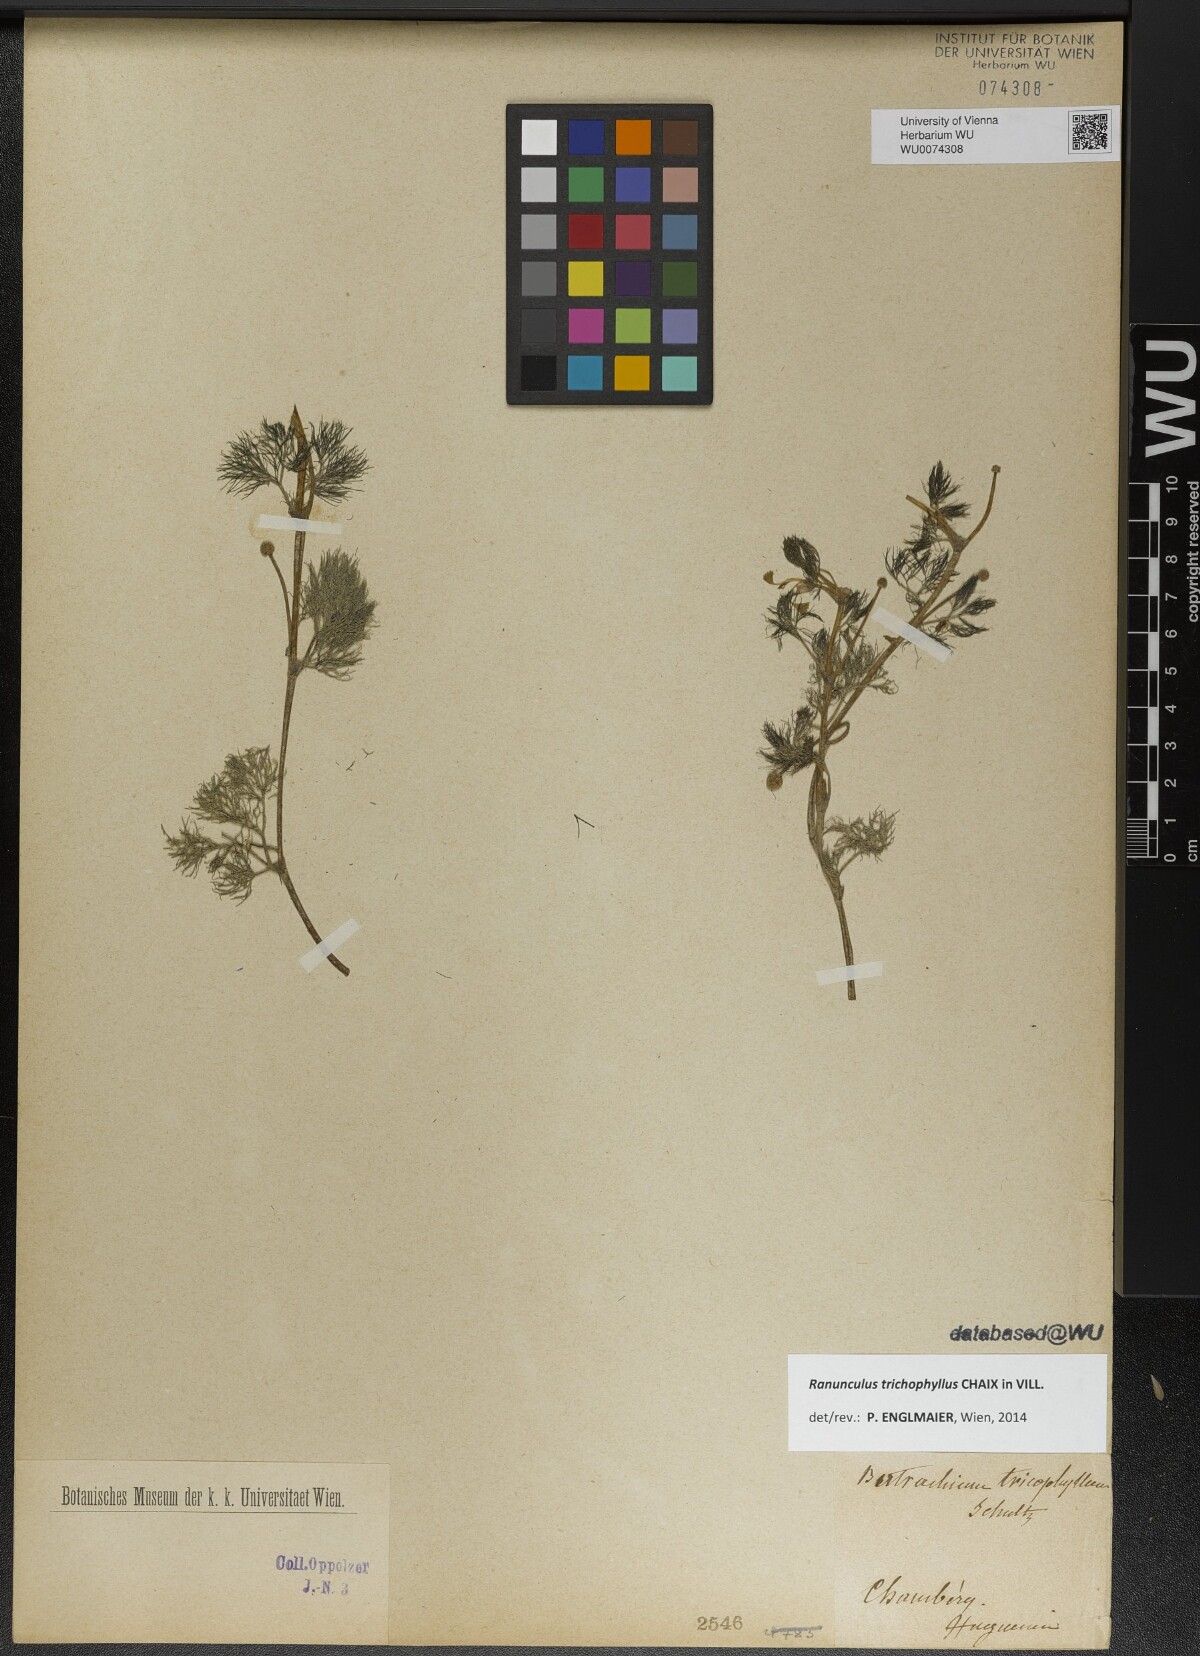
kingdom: Plantae
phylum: Tracheophyta
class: Magnoliopsida
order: Ranunculales
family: Ranunculaceae
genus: Ranunculus
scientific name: Ranunculus trichophyllus
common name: Thread-leaved water-crowfoot
